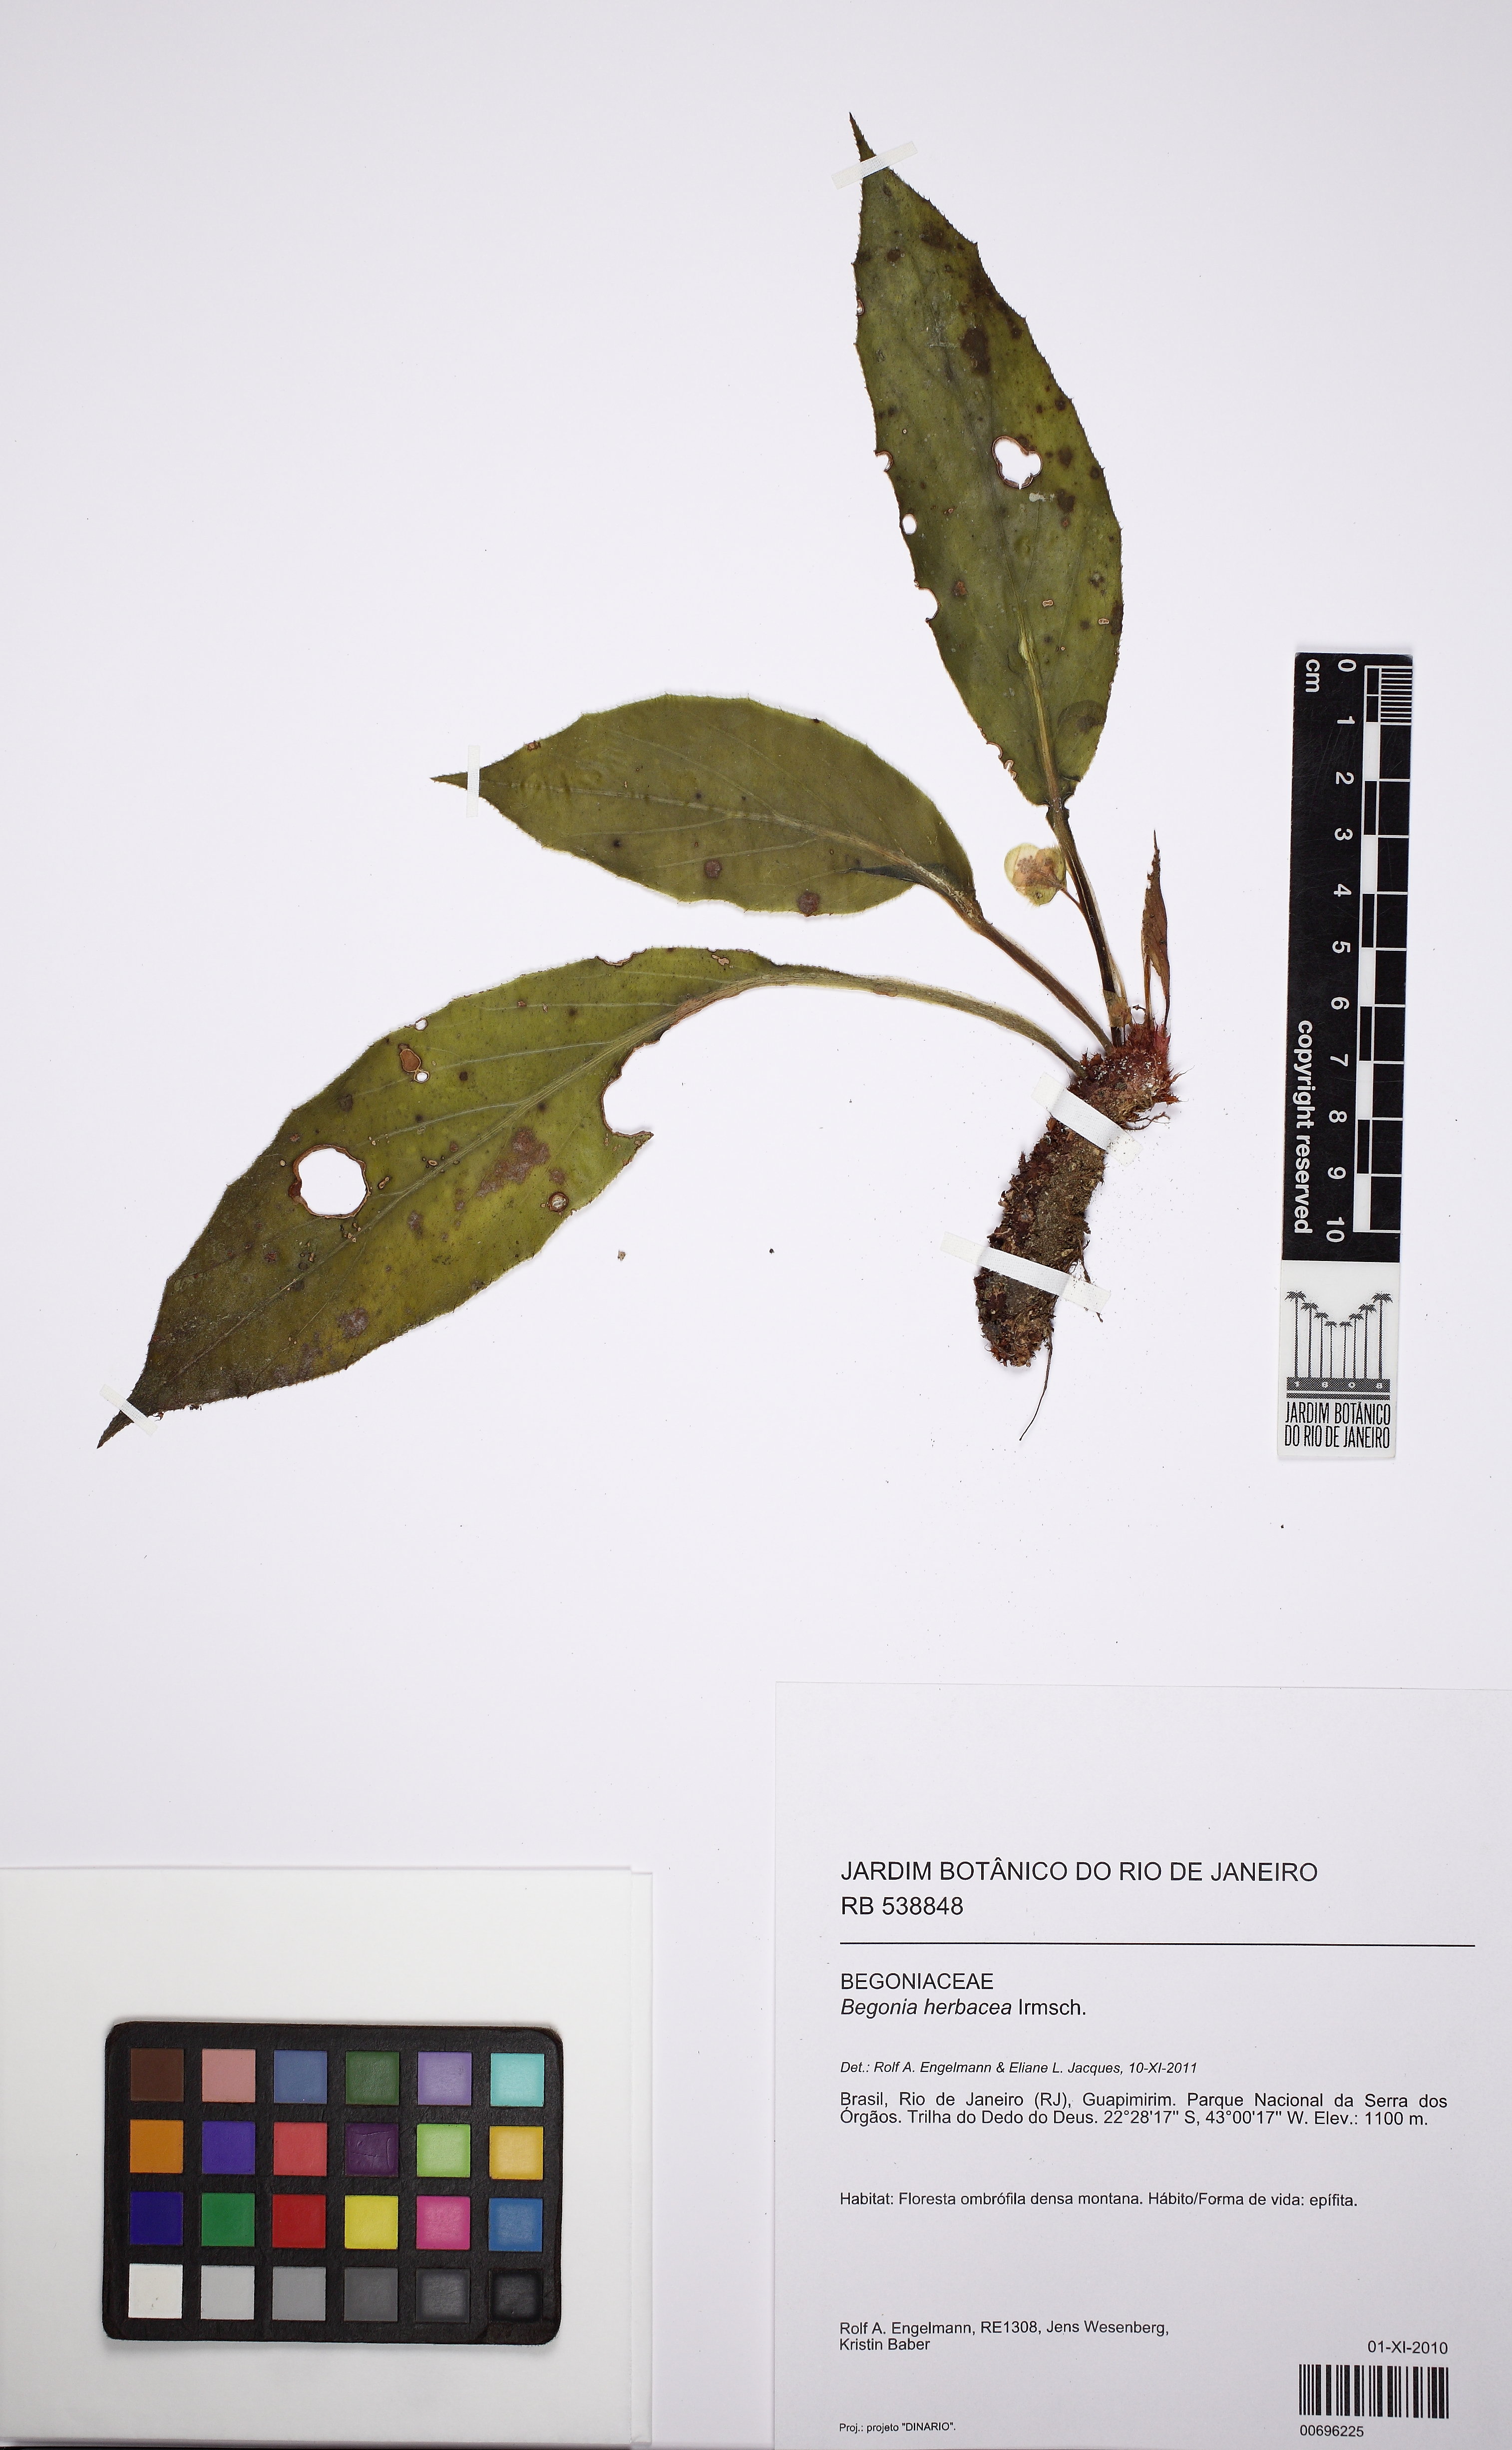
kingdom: Plantae
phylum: Tracheophyta
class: Magnoliopsida
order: Cucurbitales
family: Begoniaceae
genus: Begonia
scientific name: Begonia herbacea
